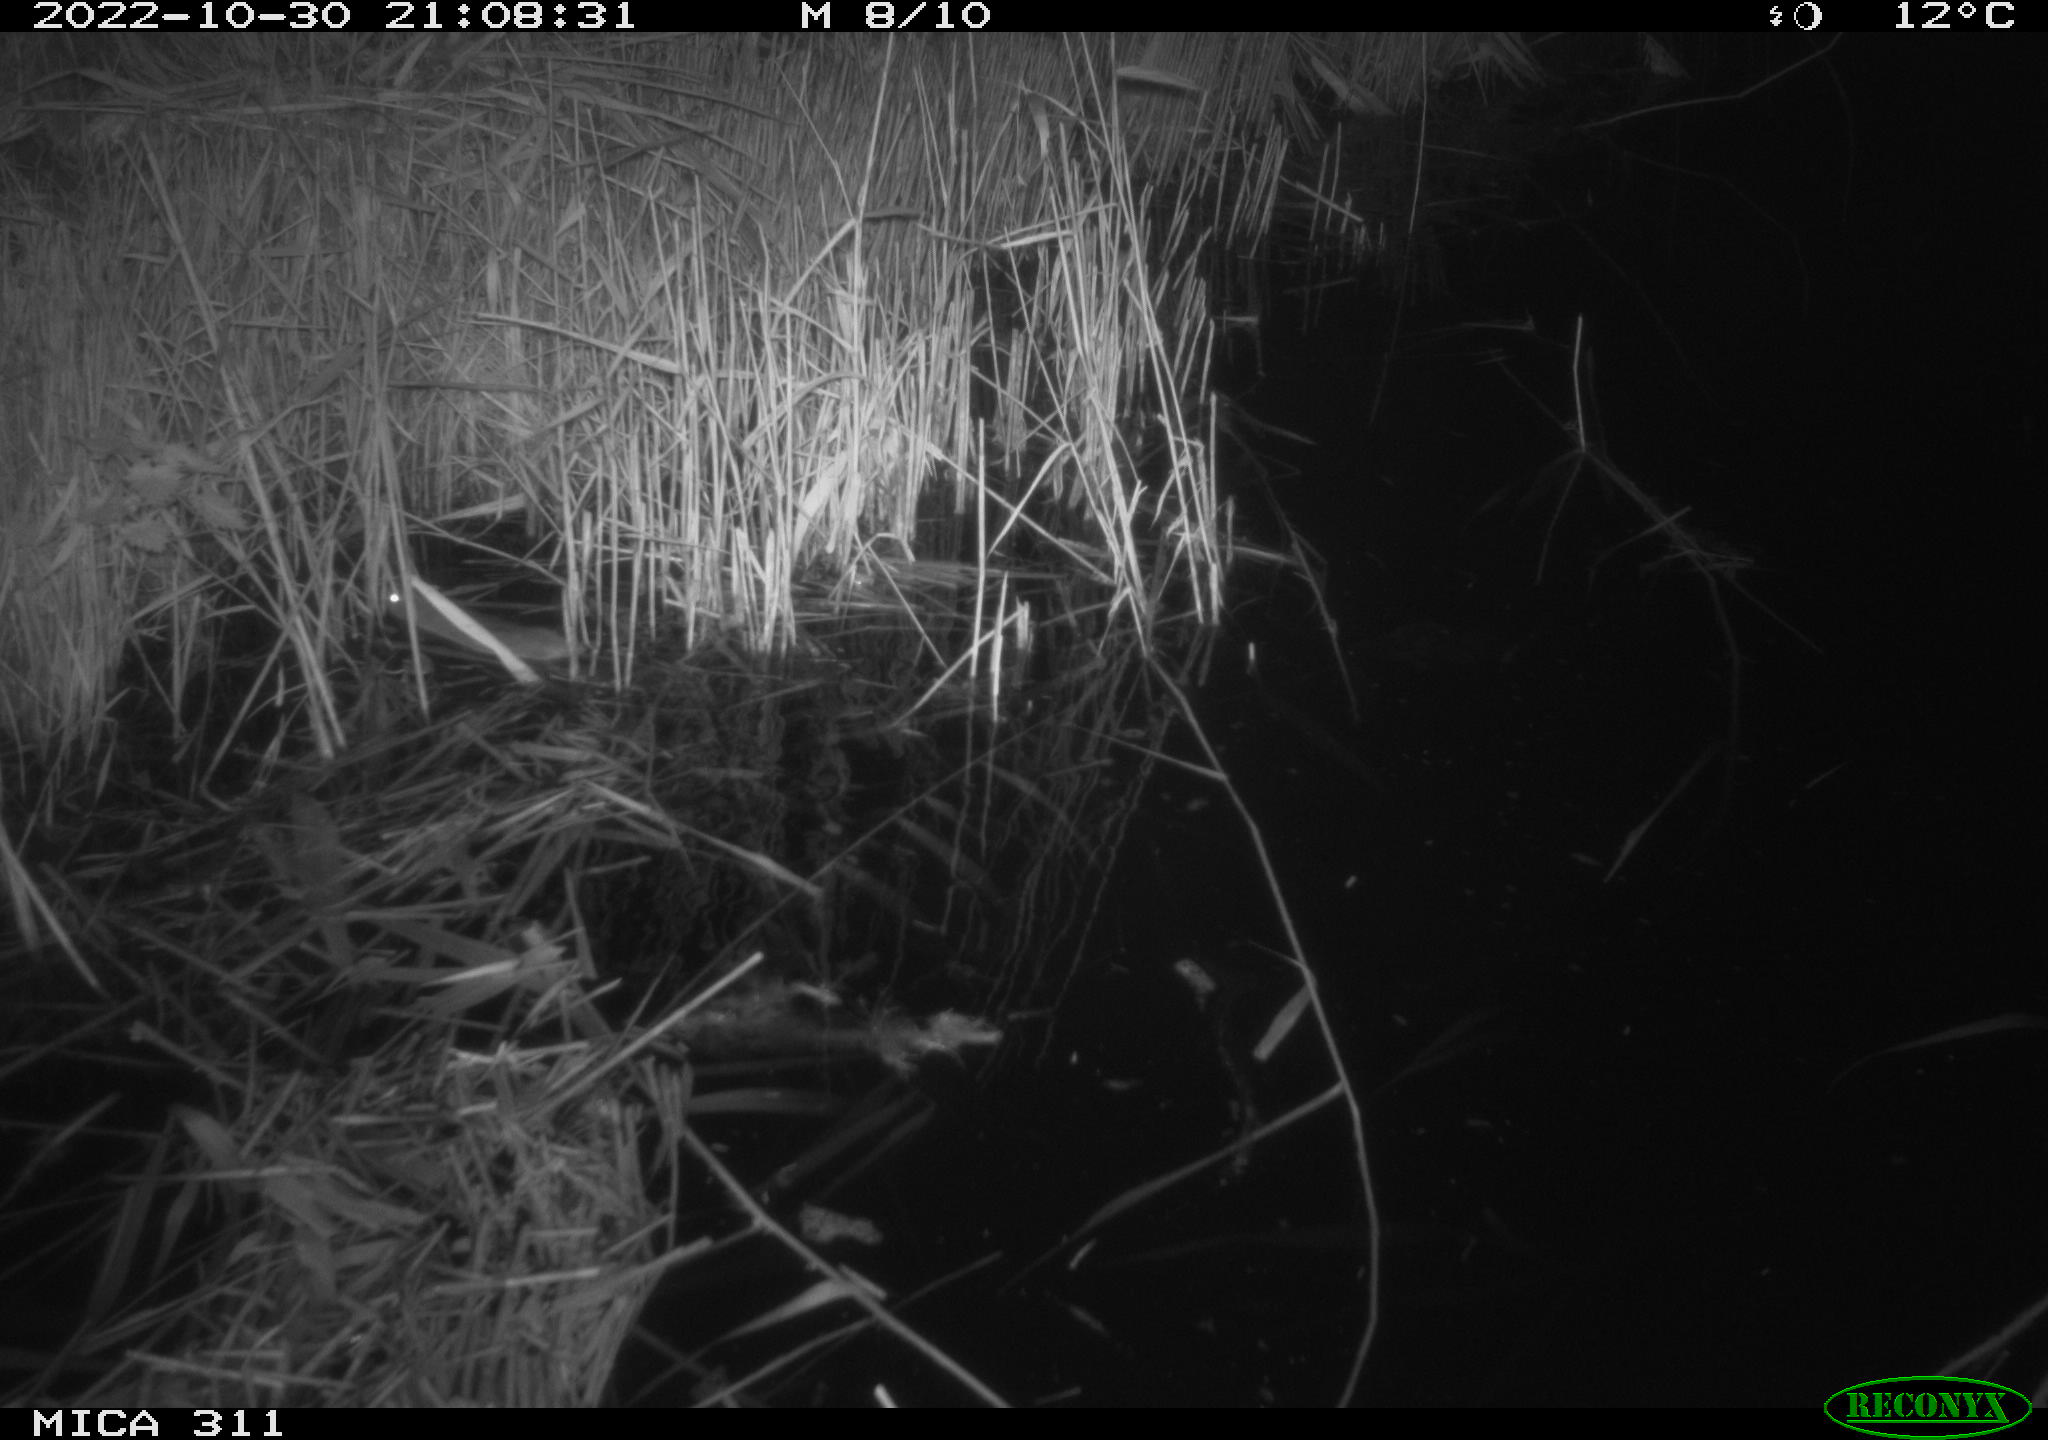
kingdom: Animalia
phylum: Chordata
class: Mammalia
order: Rodentia
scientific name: Rodentia
